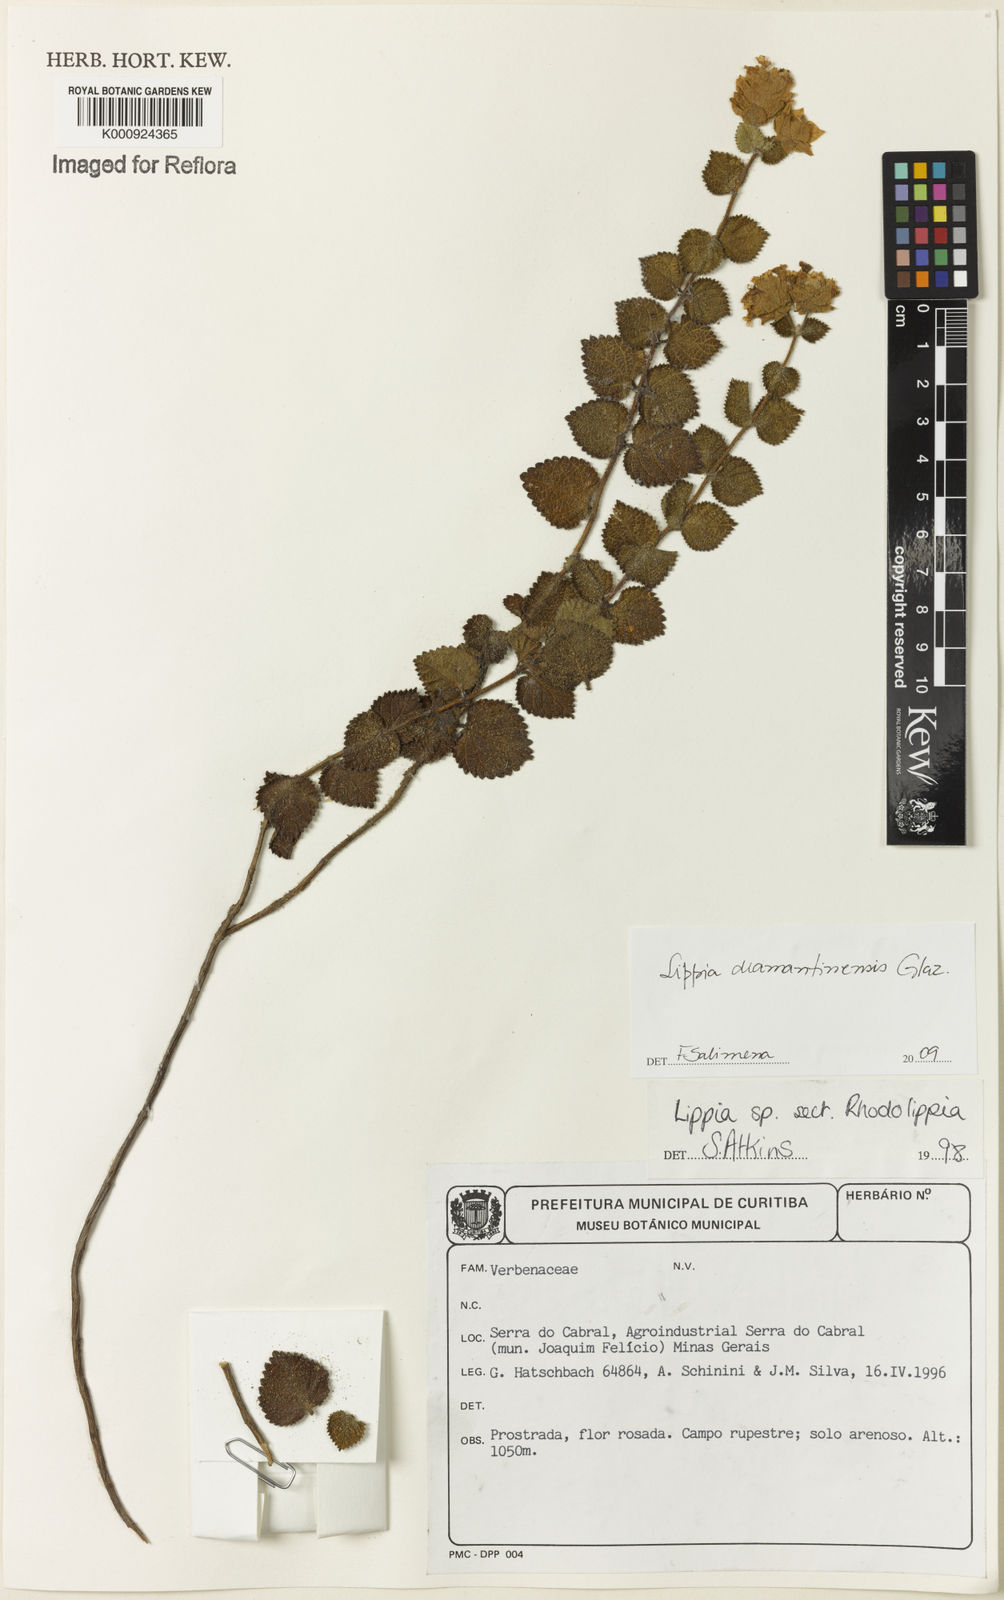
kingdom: Plantae
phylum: Tracheophyta
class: Magnoliopsida
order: Lamiales
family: Verbenaceae
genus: Lippia
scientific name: Lippia diamantinensis
